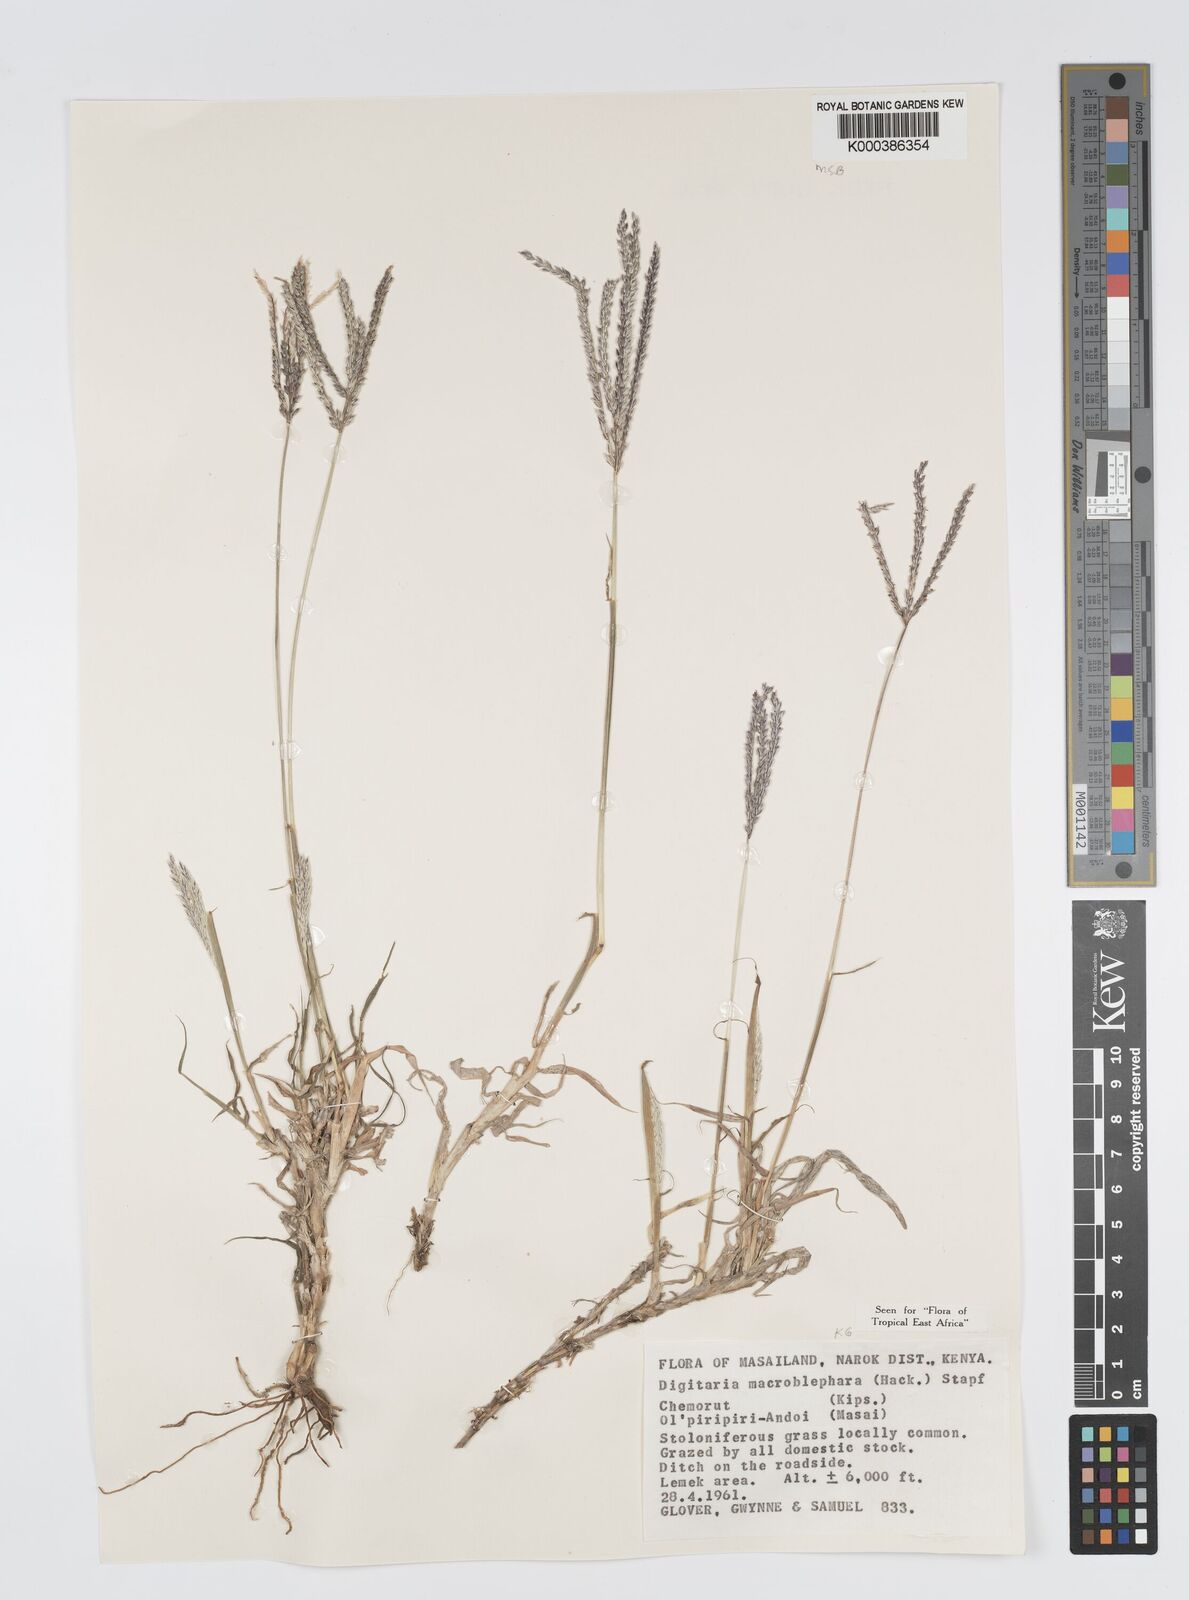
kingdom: Plantae
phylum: Tracheophyta
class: Liliopsida
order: Poales
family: Poaceae
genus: Digitaria
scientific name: Digitaria macroblephara
